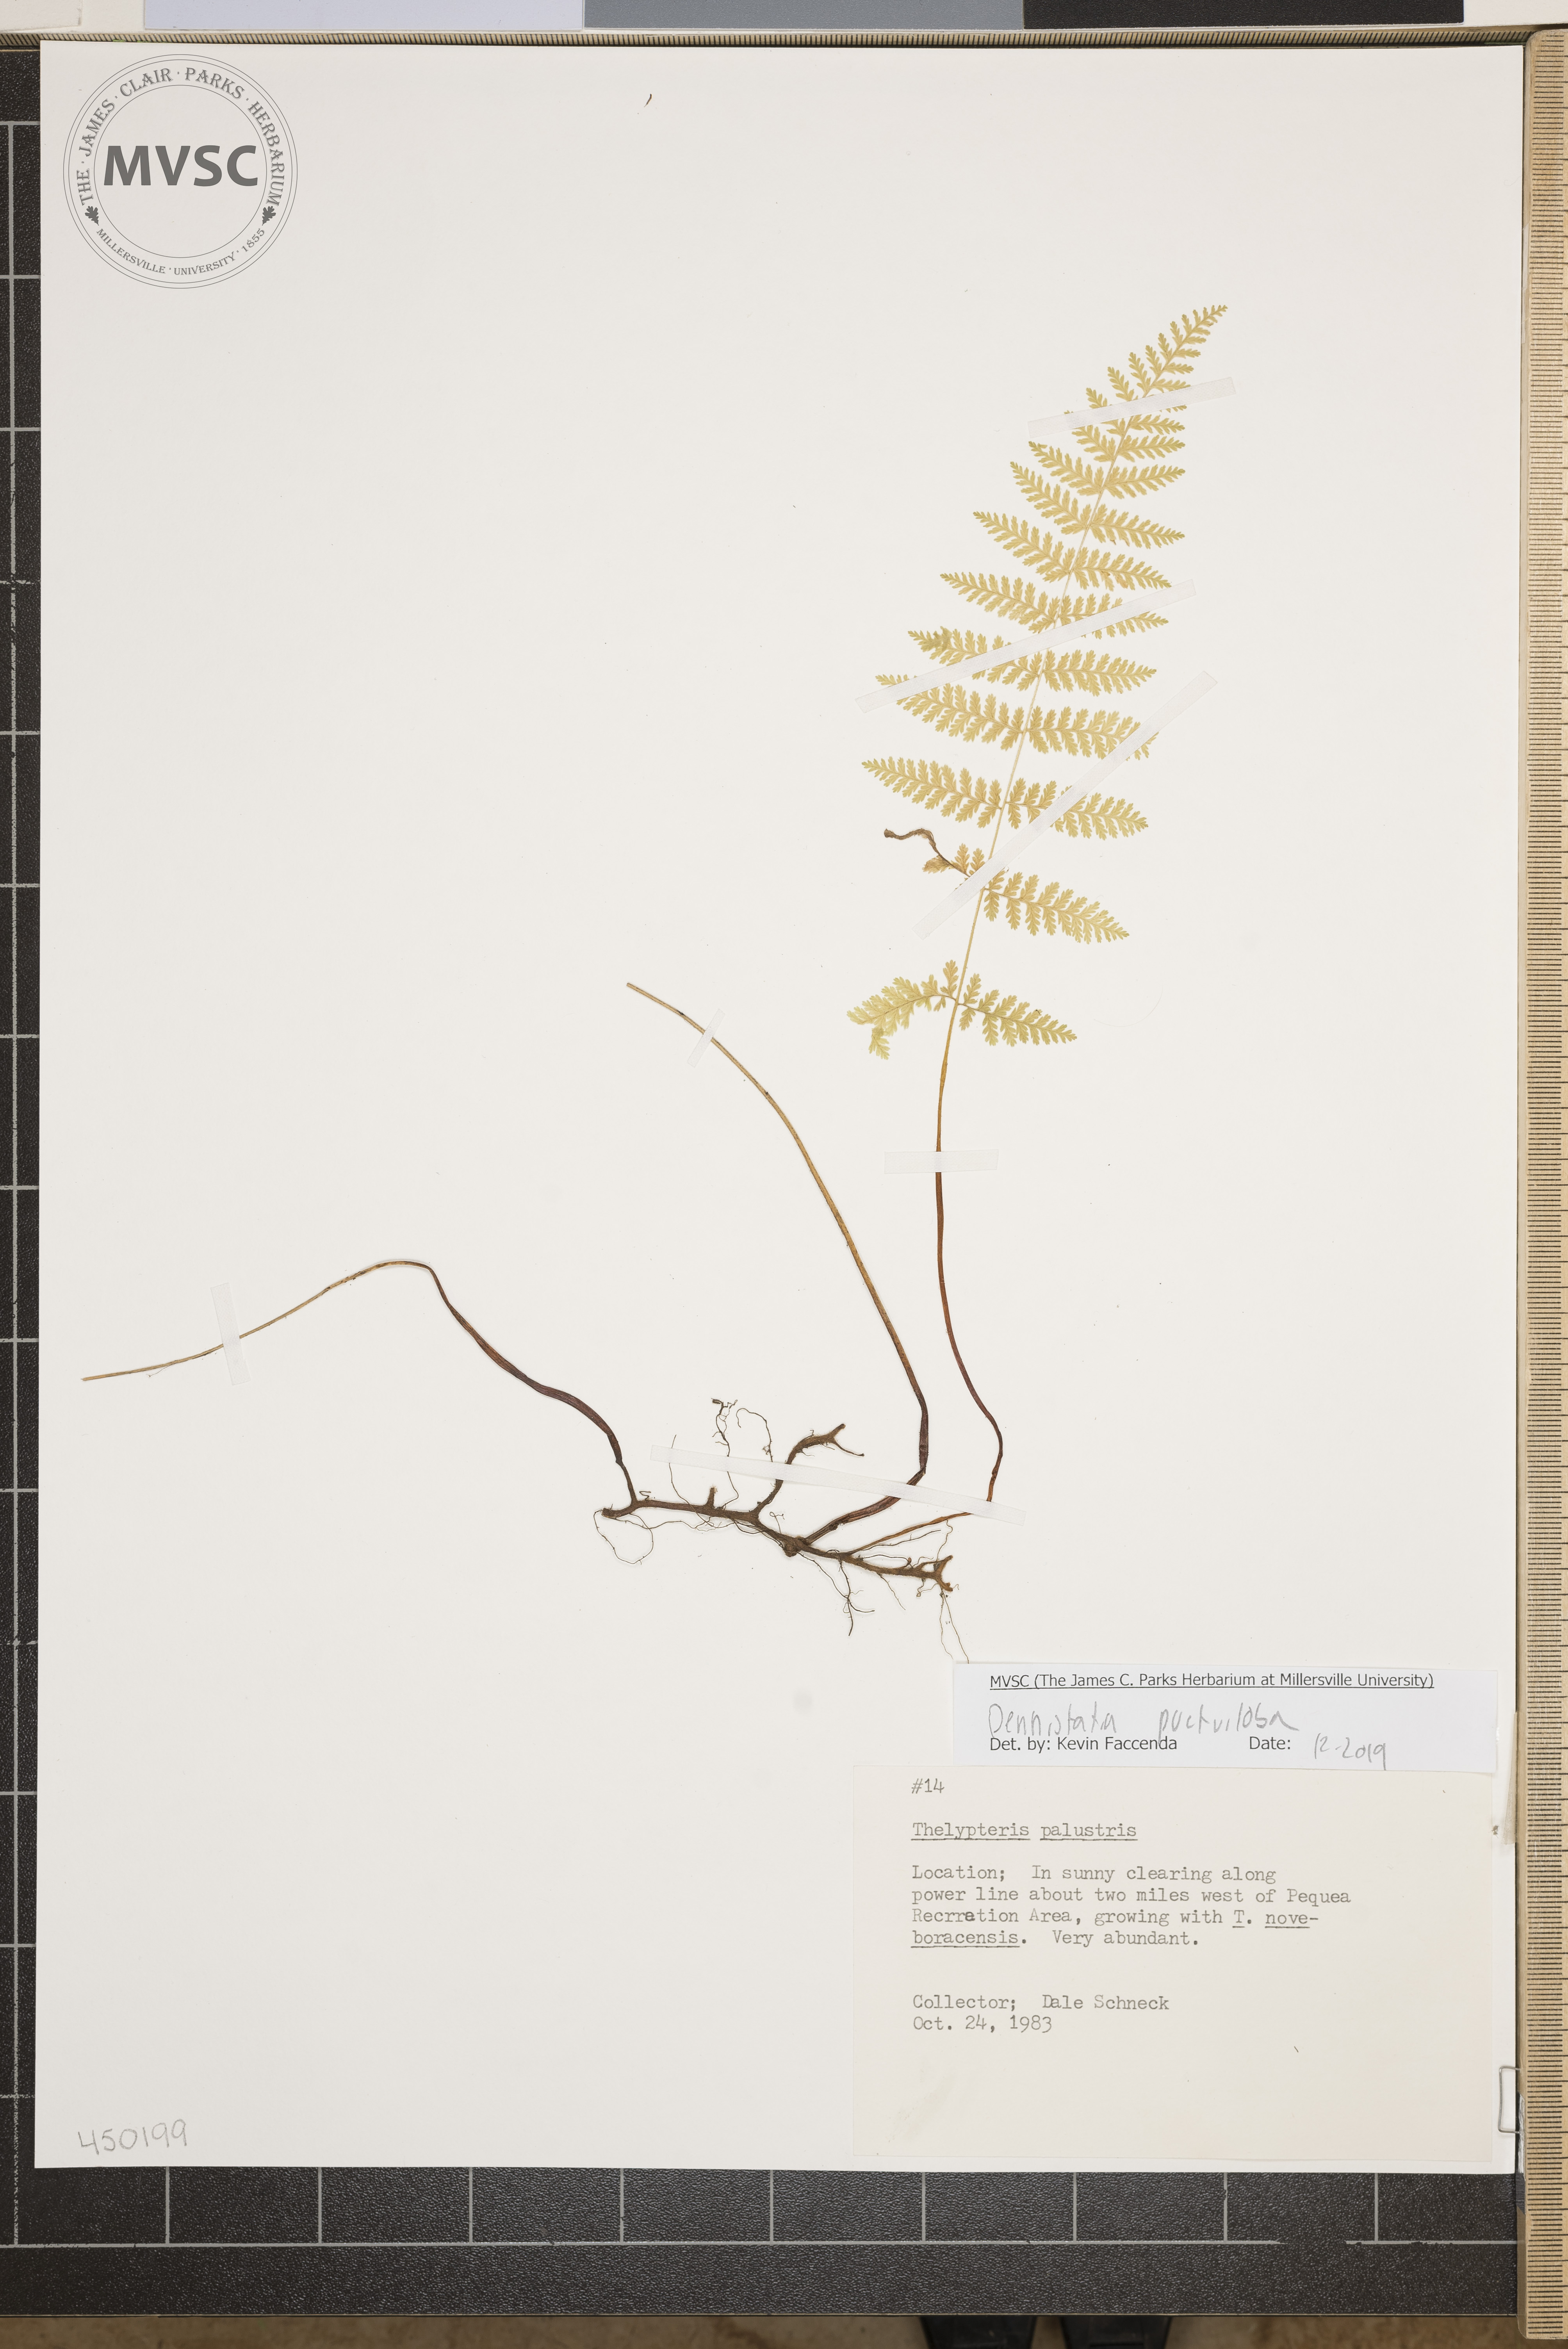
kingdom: Plantae
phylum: Tracheophyta
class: Polypodiopsida
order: Polypodiales
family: Thelypteridaceae
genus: Thelypteris
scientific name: Thelypteris palustris
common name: Marsh fern
